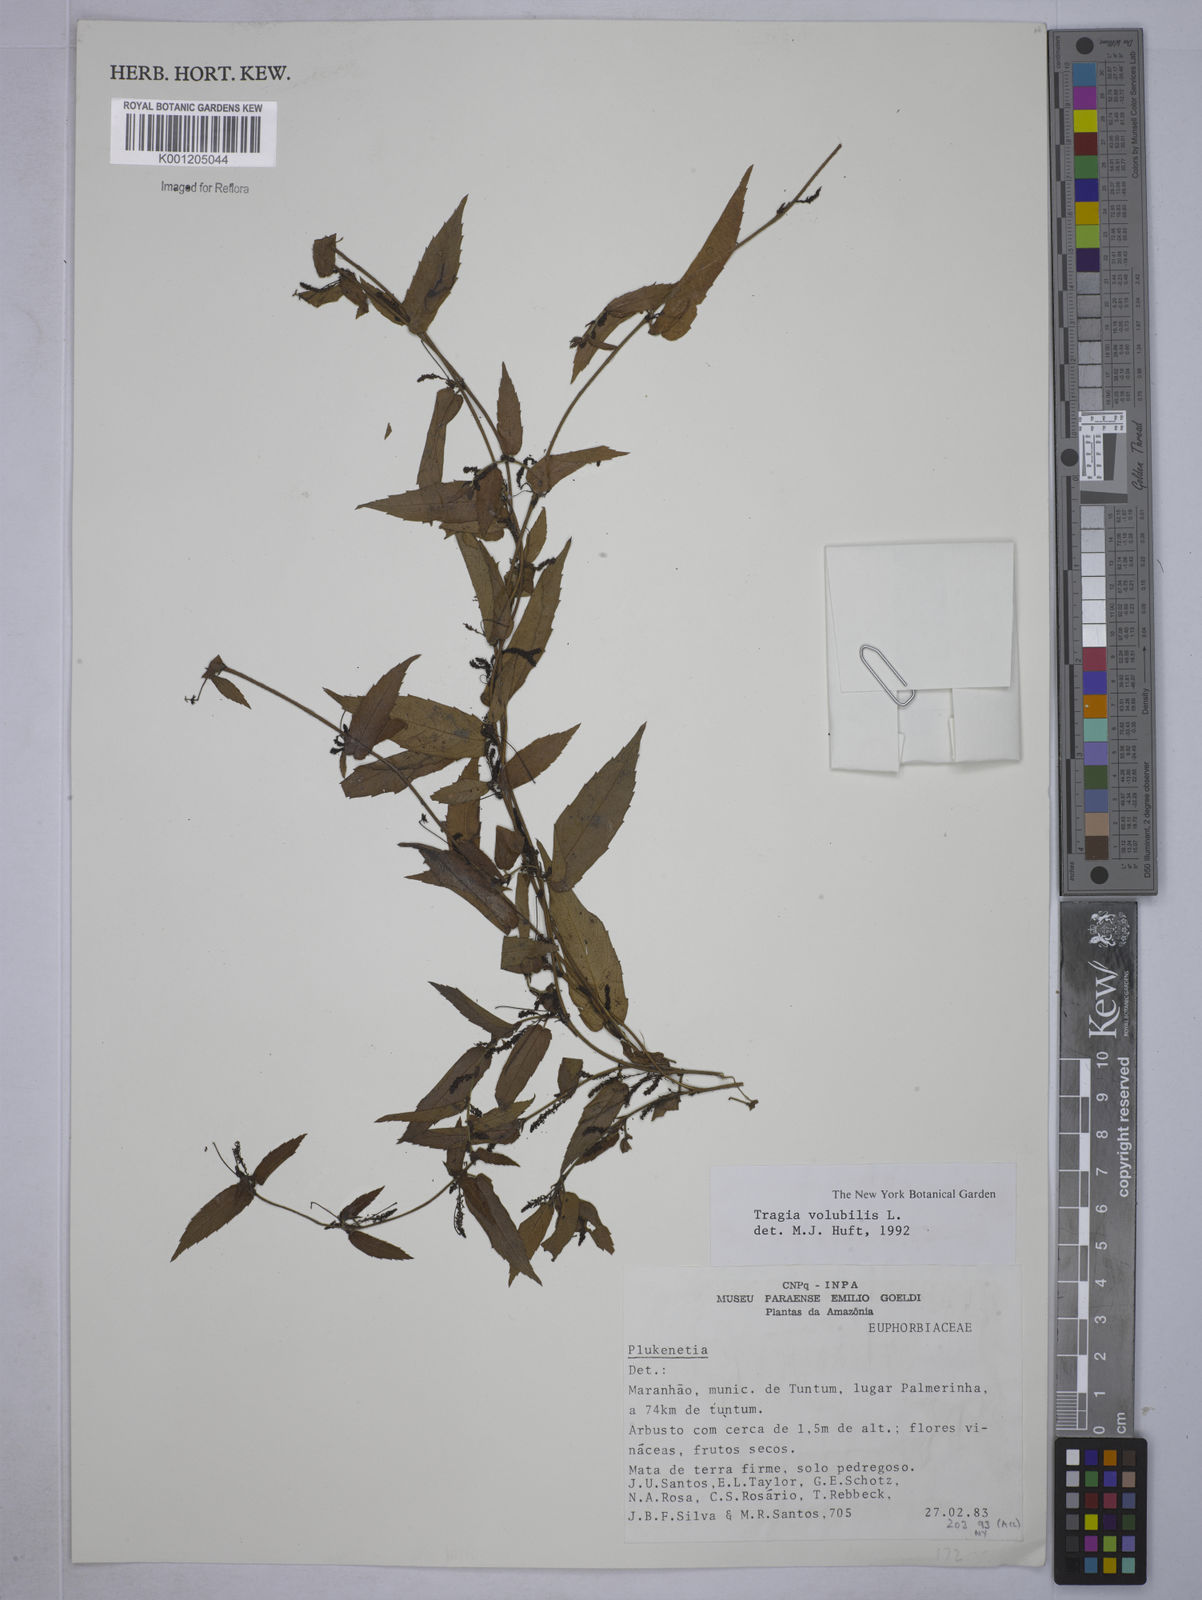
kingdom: Plantae
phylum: Tracheophyta
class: Magnoliopsida
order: Malpighiales
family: Euphorbiaceae
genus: Tragia
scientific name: Tragia volubilis
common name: Twining cow-itch
